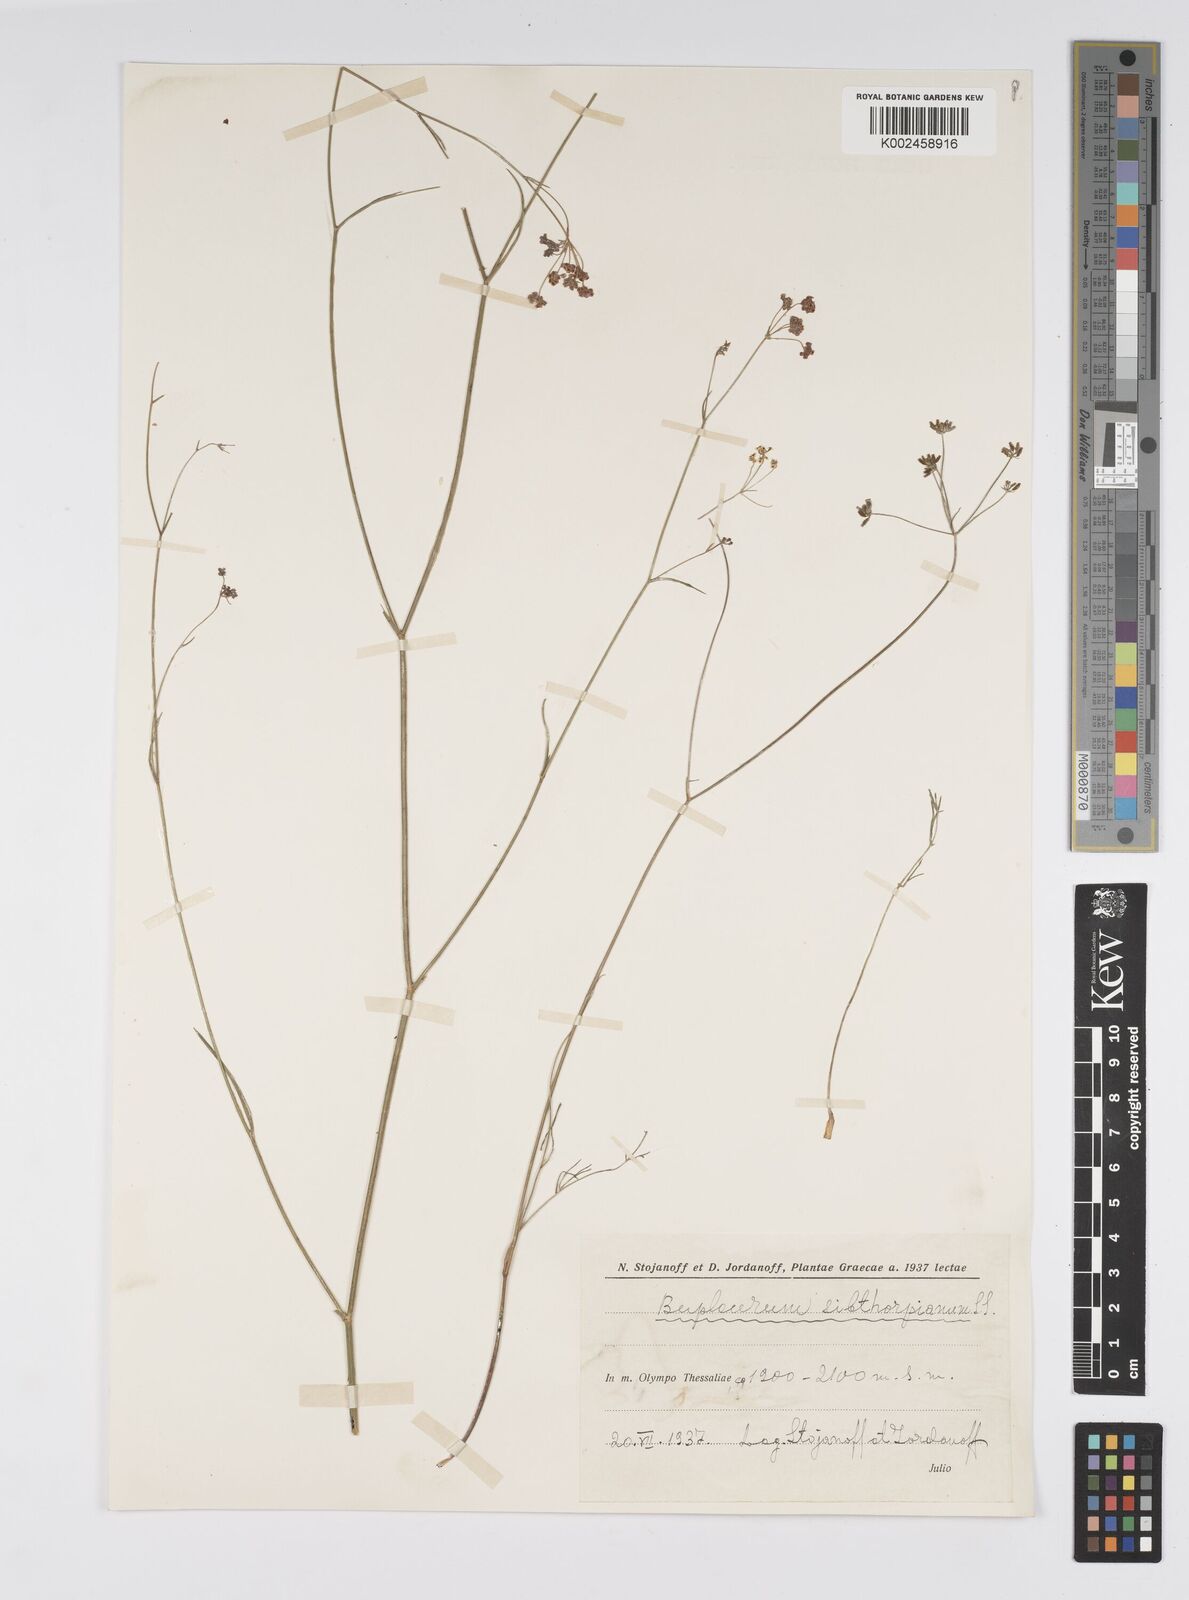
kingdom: Plantae
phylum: Tracheophyta
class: Magnoliopsida
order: Apiales
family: Apiaceae
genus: Bupleurum
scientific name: Bupleurum falcatum
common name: Sickle-leaved hare's-ear
